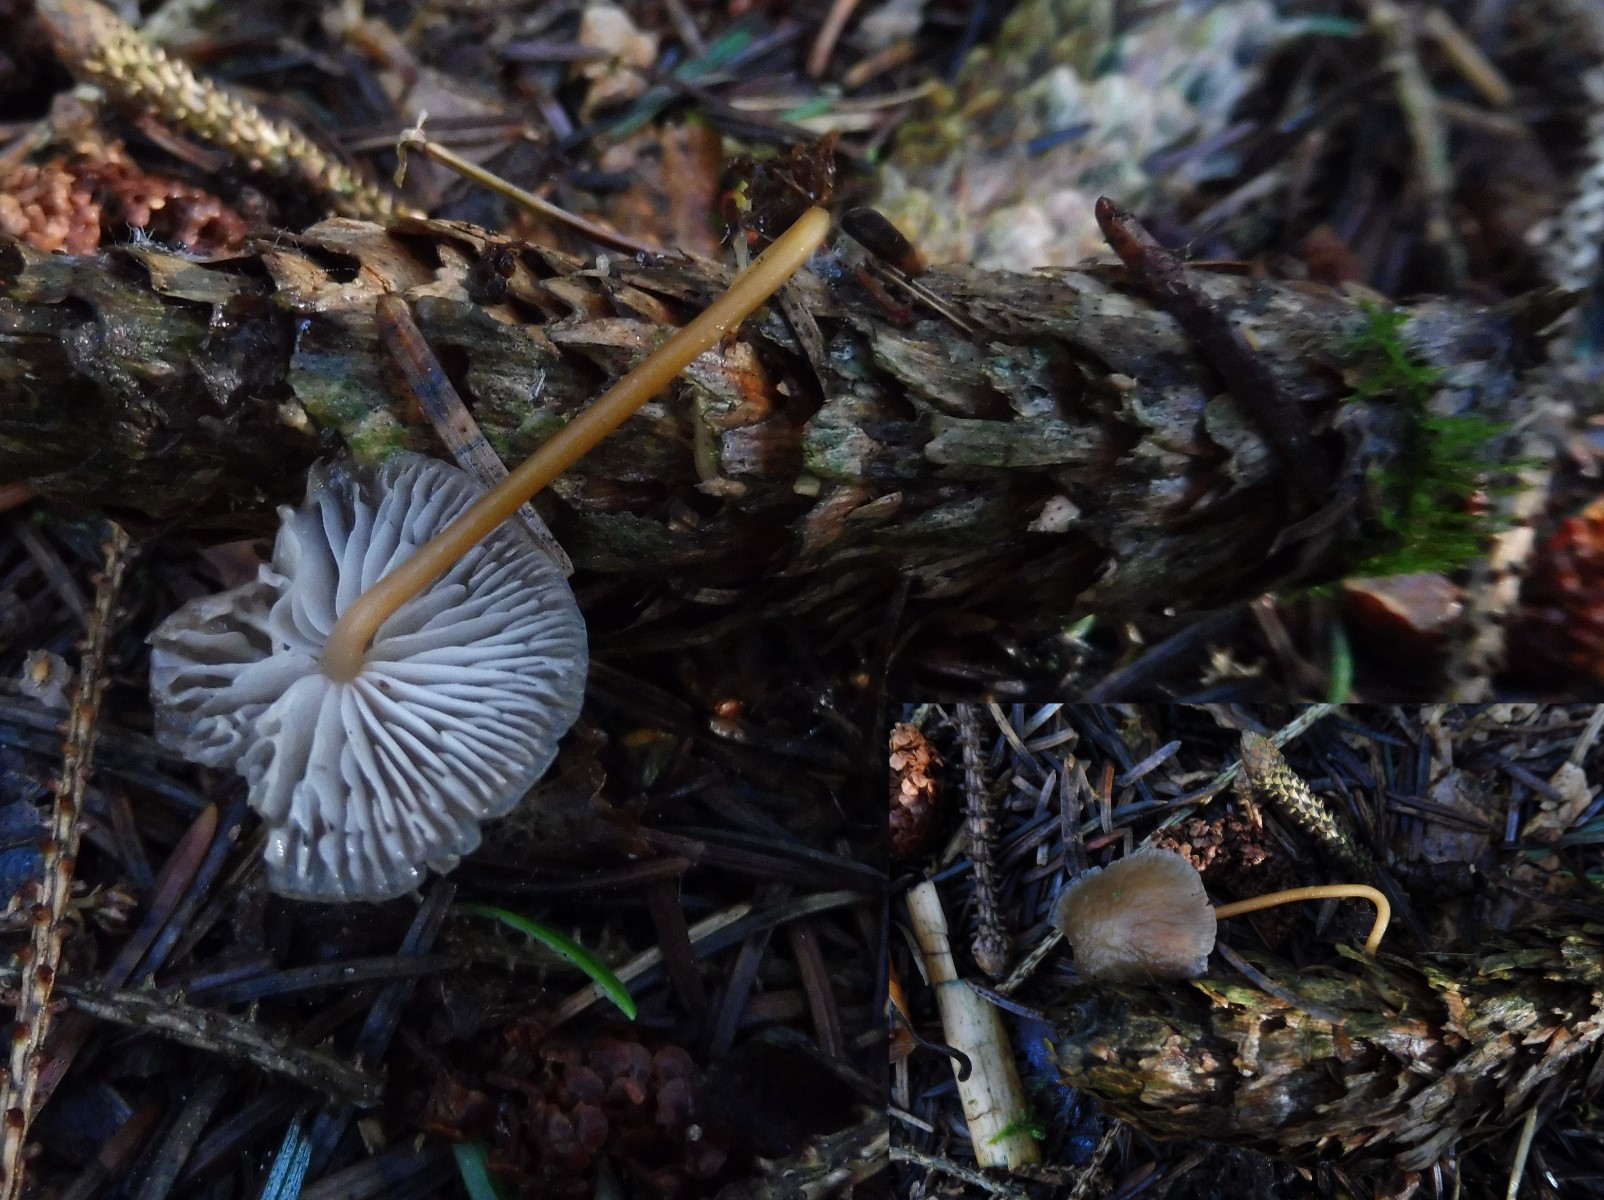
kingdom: Fungi
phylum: Basidiomycota
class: Agaricomycetes
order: Agaricales
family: Physalacriaceae
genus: Strobilurus
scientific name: Strobilurus esculentus
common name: gran-koglehat
